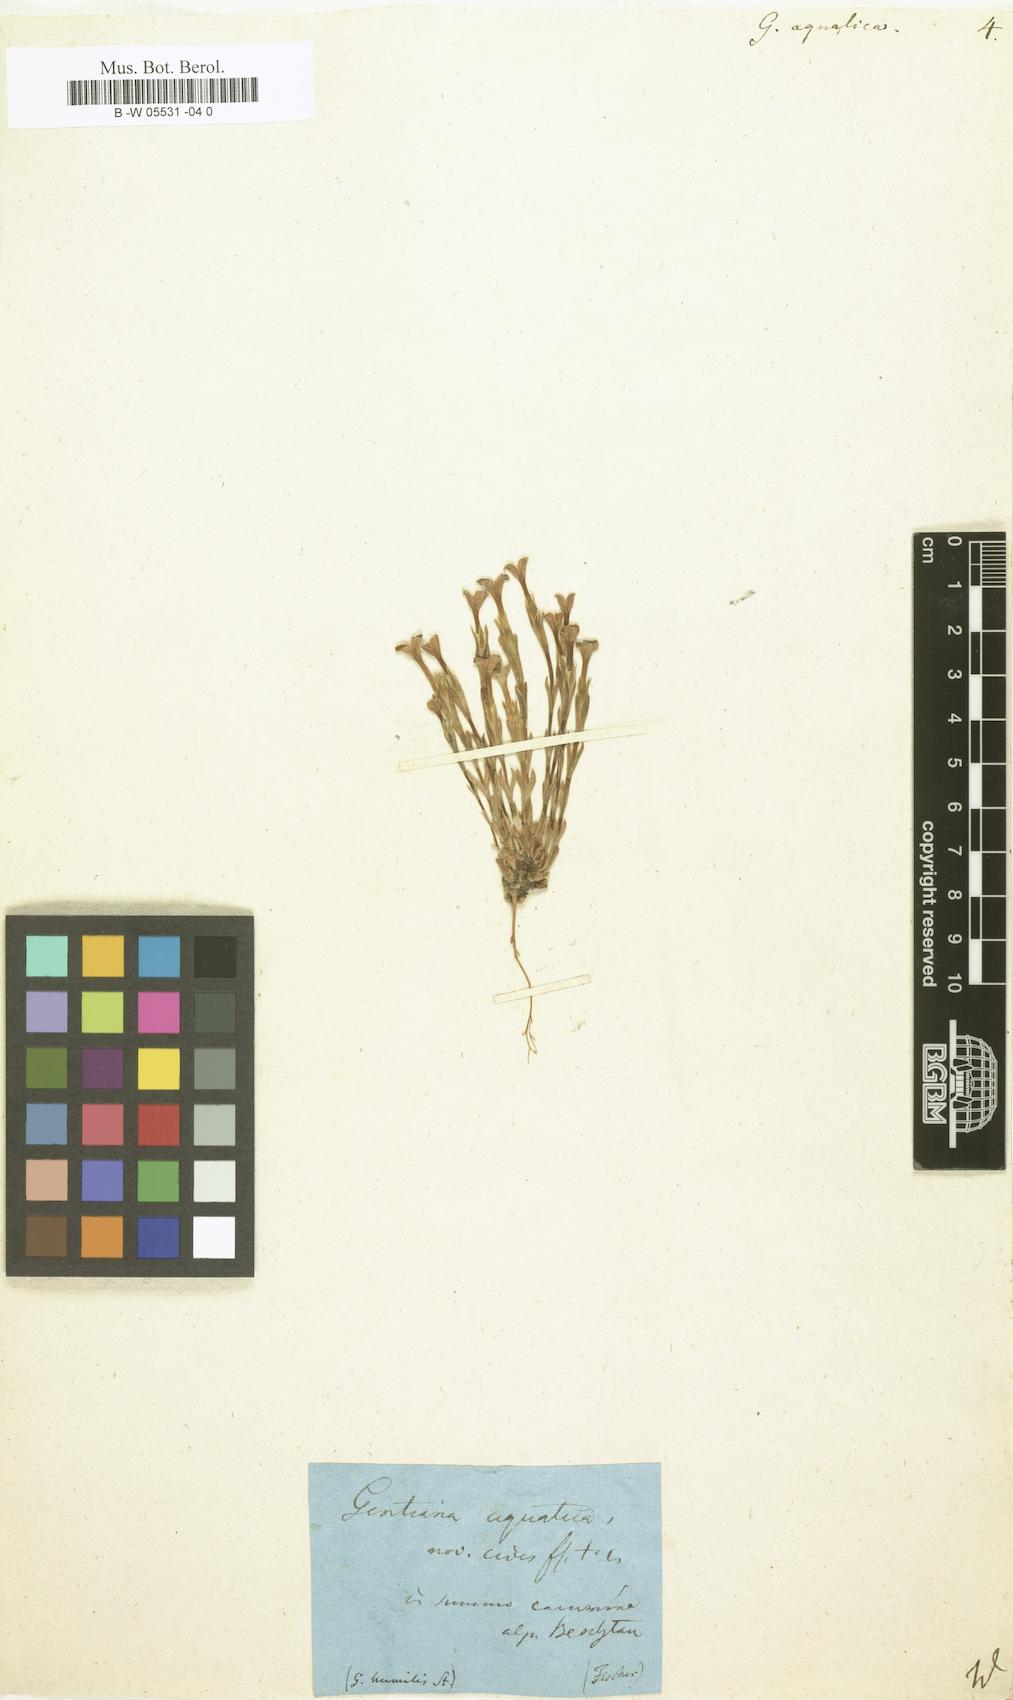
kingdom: Plantae
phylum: Tracheophyta
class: Magnoliopsida
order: Gentianales
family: Gentianaceae
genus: Gentiana
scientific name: Gentiana aquatica
